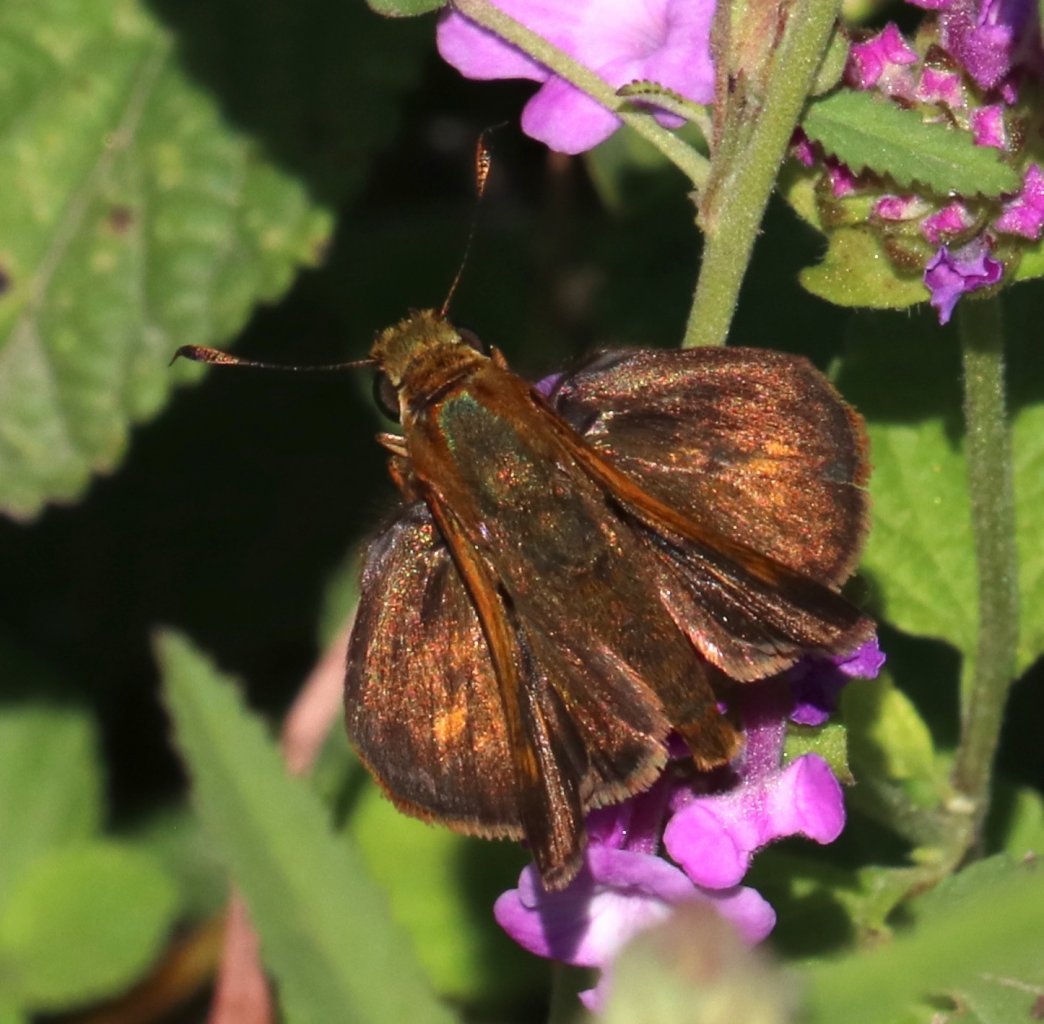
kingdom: Animalia
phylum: Arthropoda
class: Insecta
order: Lepidoptera
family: Hesperiidae
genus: Wallengrenia
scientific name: Wallengrenia otho
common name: Southern Broken-Dash
